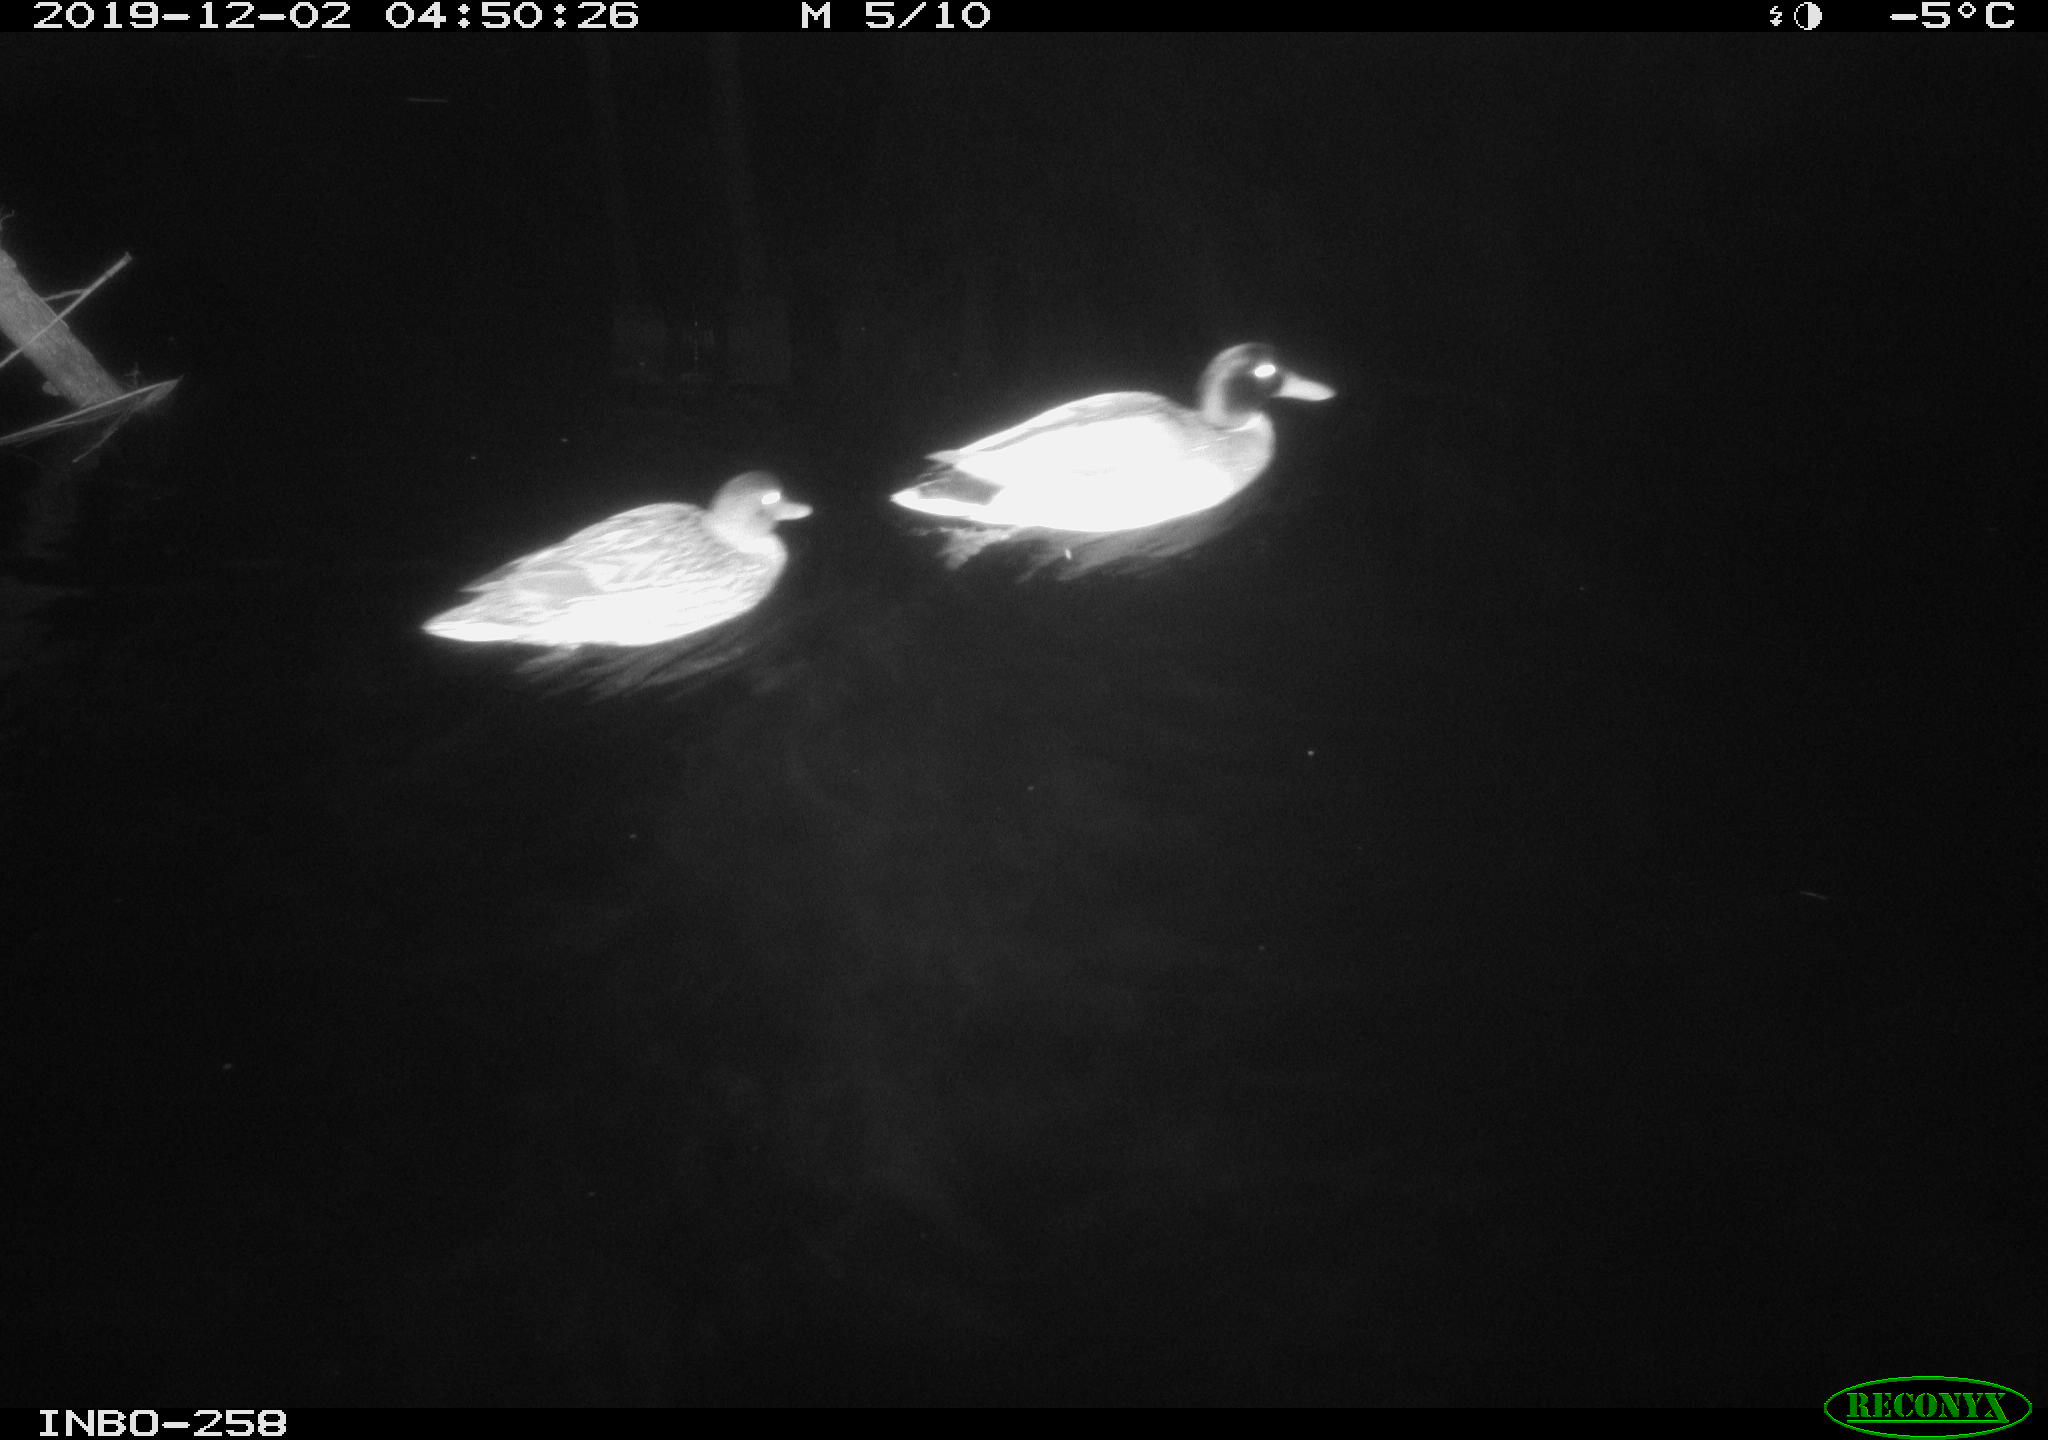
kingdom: Animalia
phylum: Chordata
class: Aves
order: Anseriformes
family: Anatidae
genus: Anas
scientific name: Anas platyrhynchos
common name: Mallard
